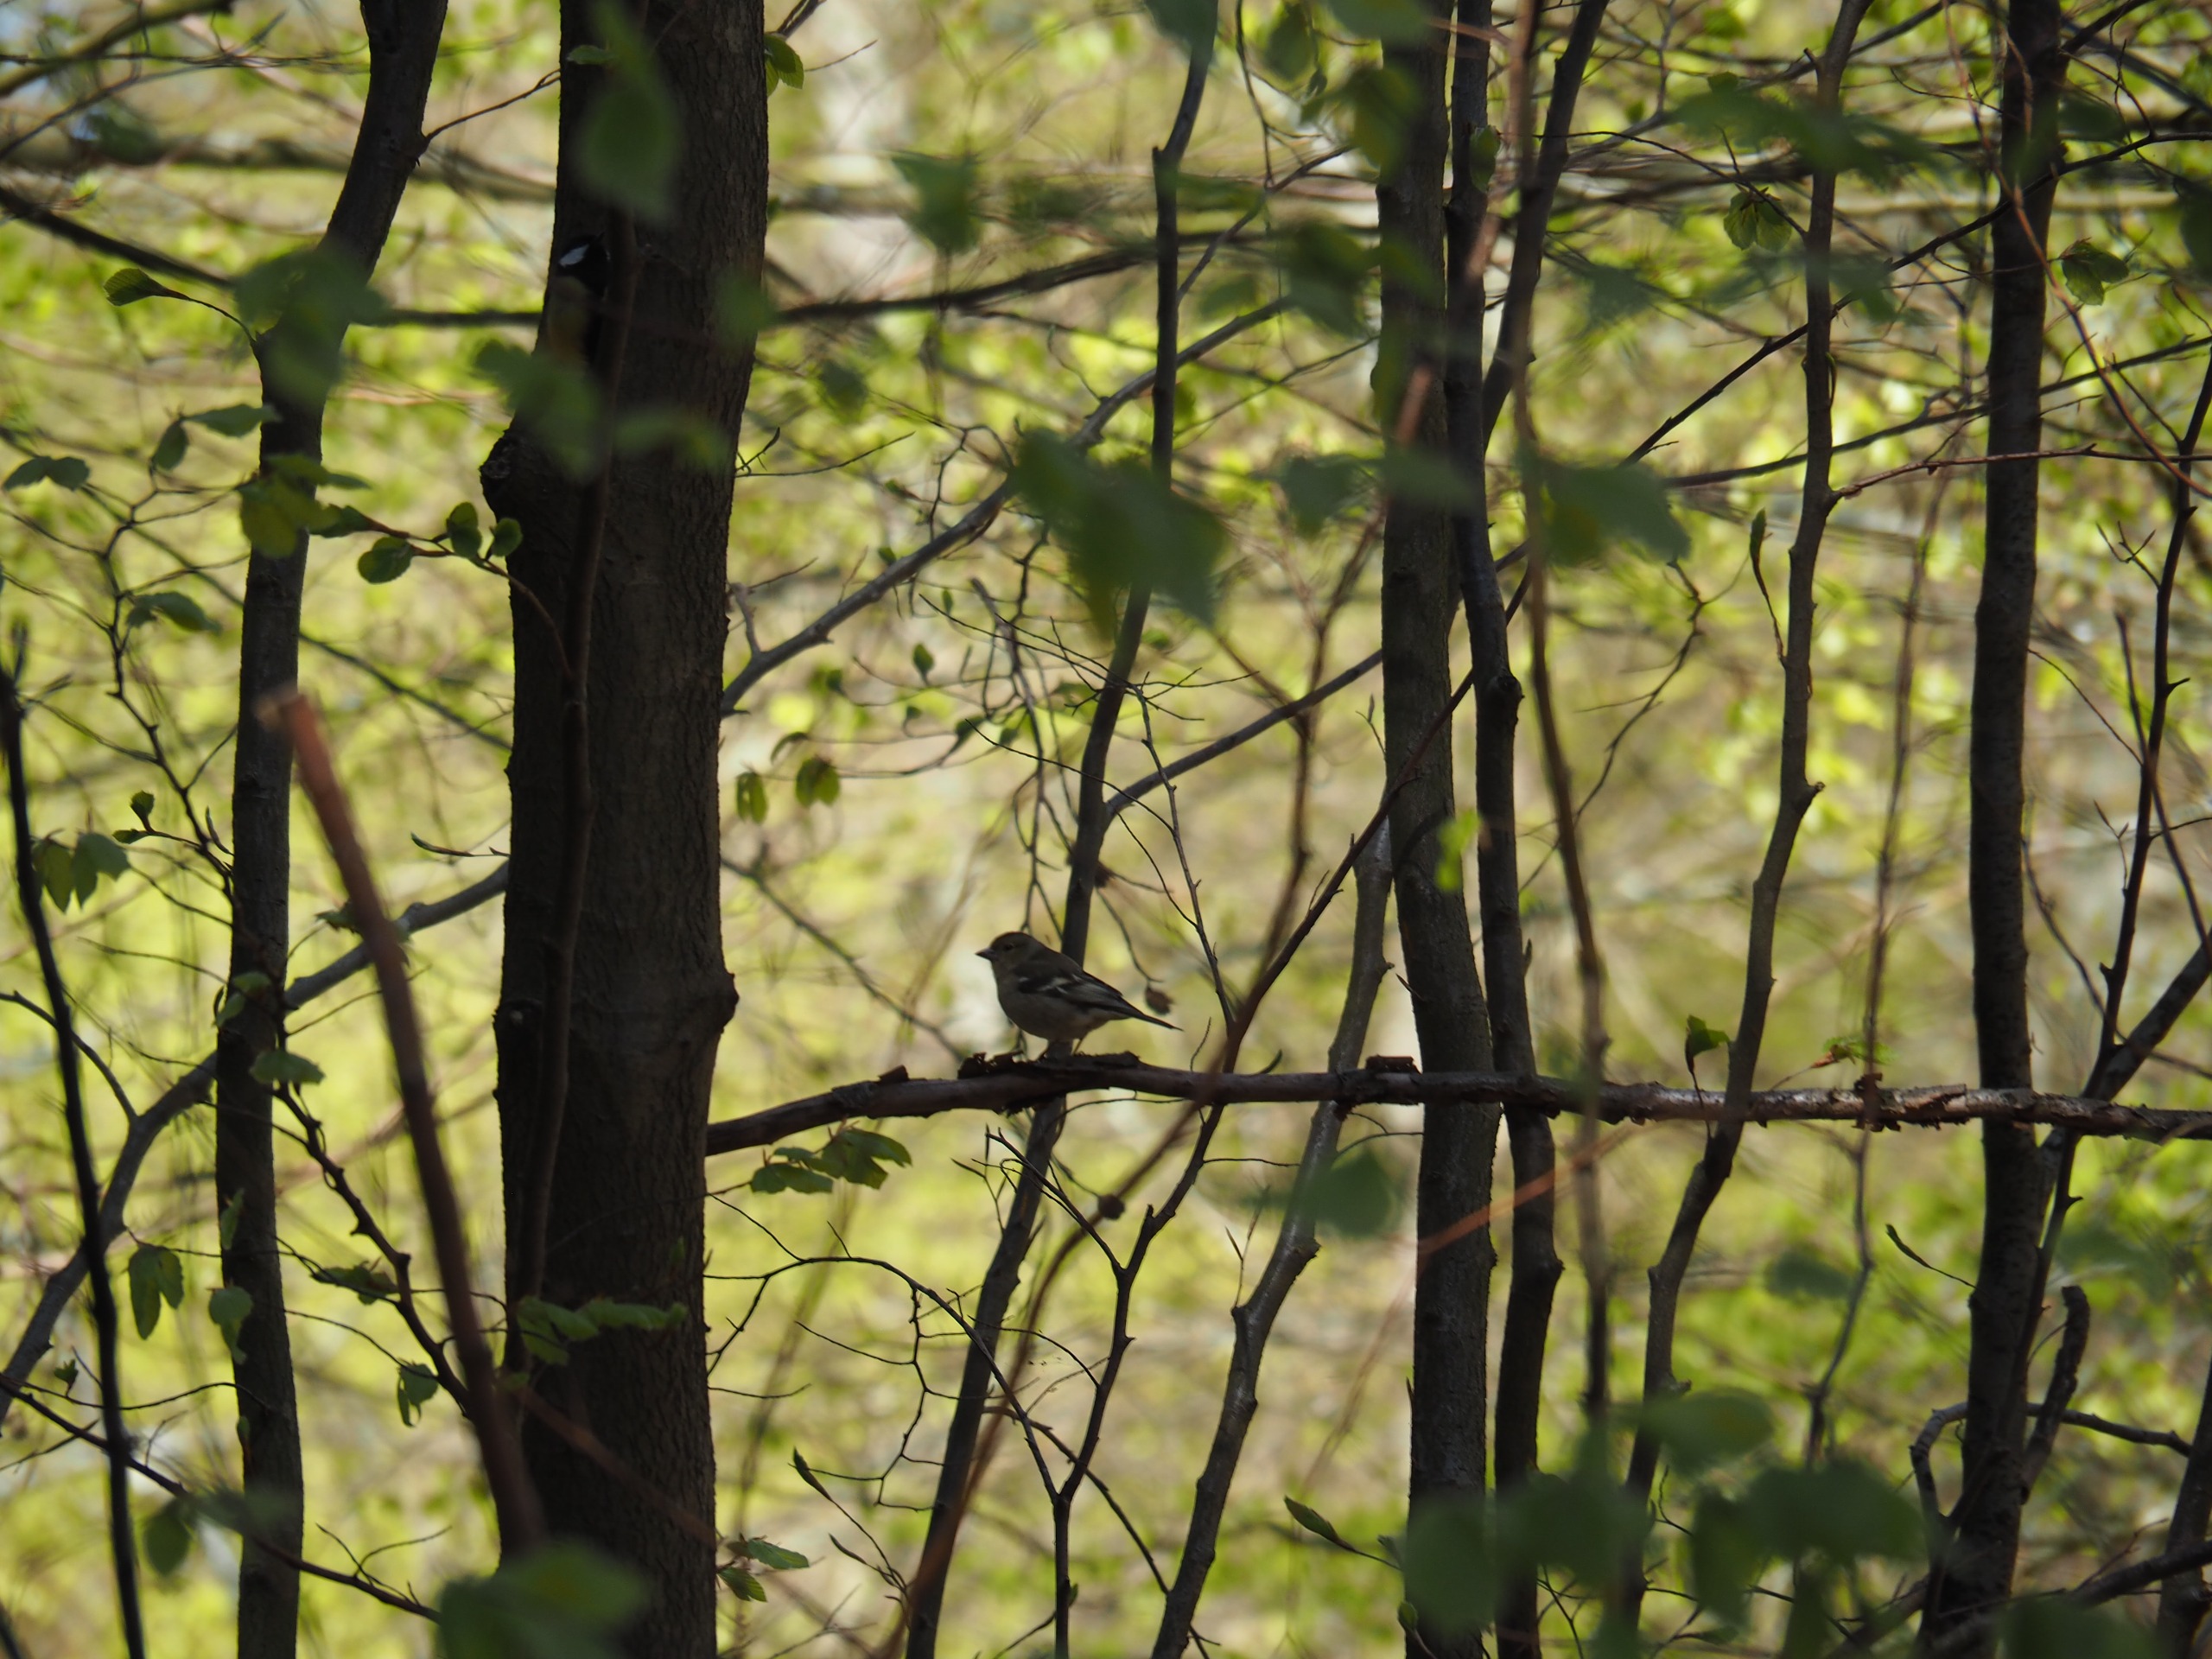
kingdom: Animalia
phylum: Chordata
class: Aves
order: Passeriformes
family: Fringillidae
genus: Fringilla
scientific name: Fringilla coelebs
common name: Bogfinke
